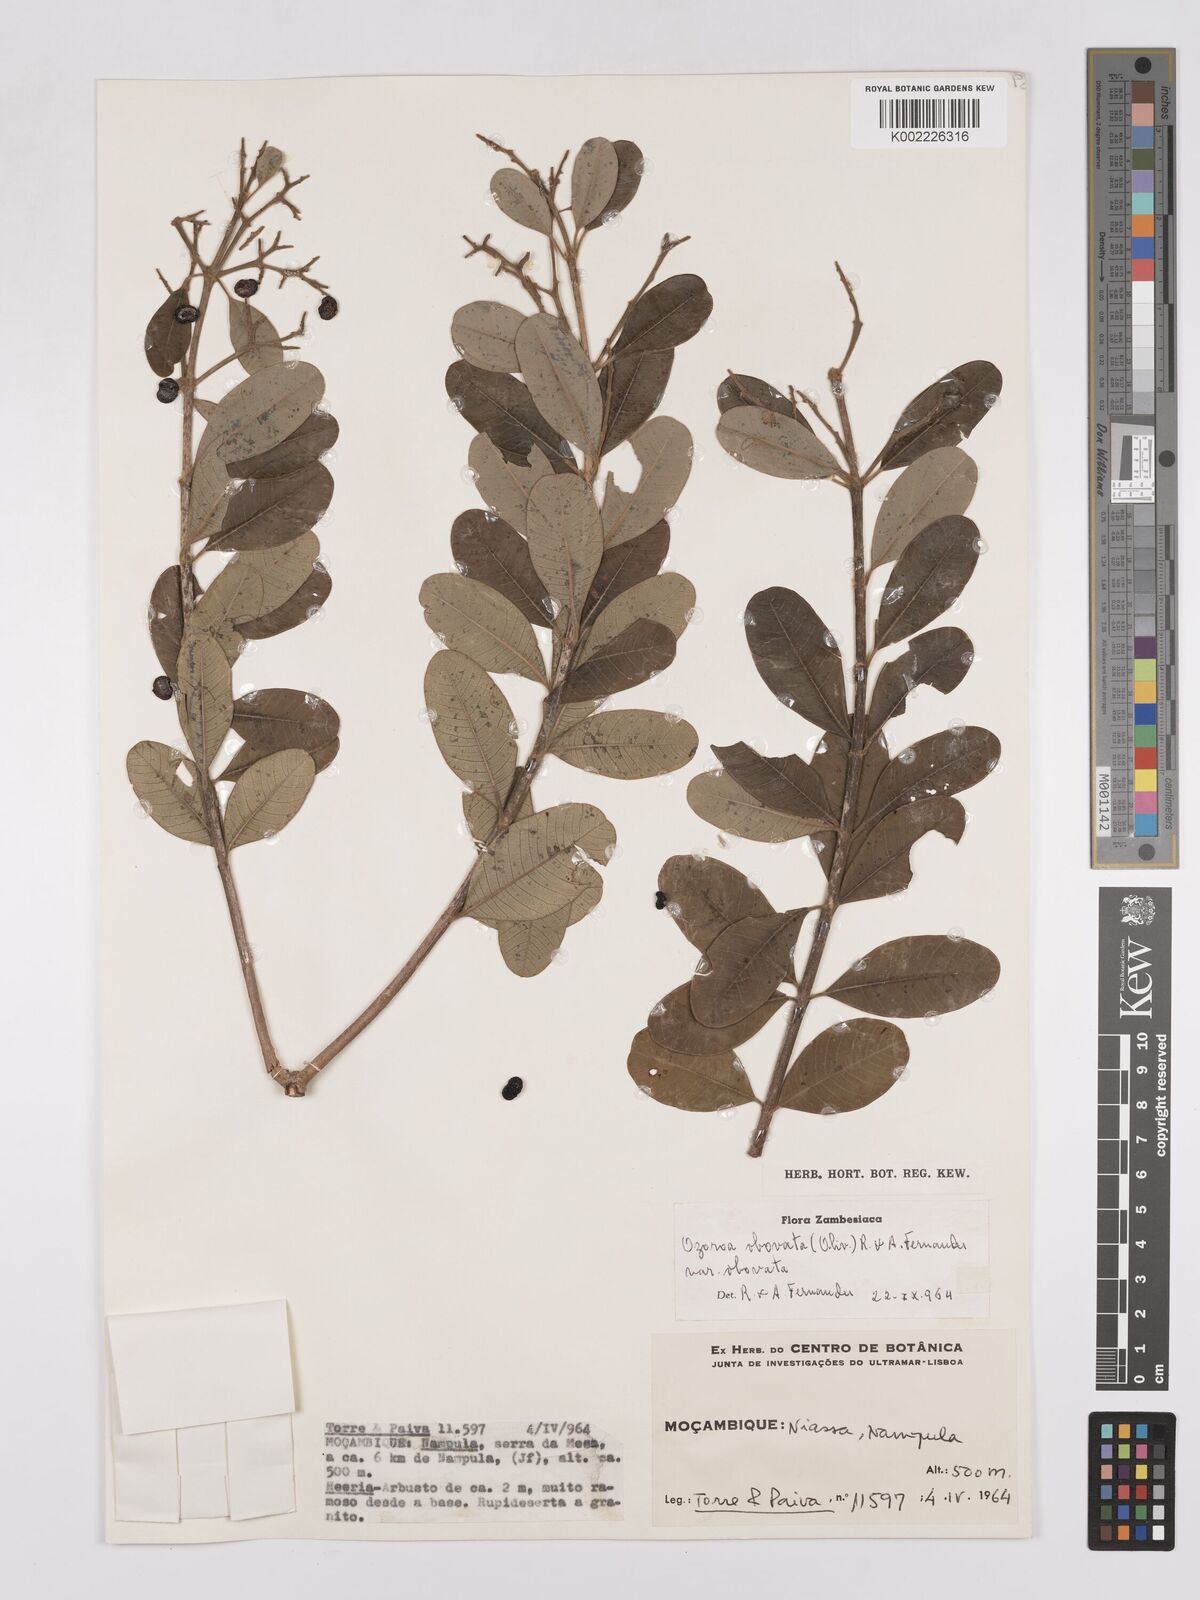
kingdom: Plantae
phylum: Tracheophyta
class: Magnoliopsida
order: Sapindales
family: Anacardiaceae
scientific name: Anacardiaceae
